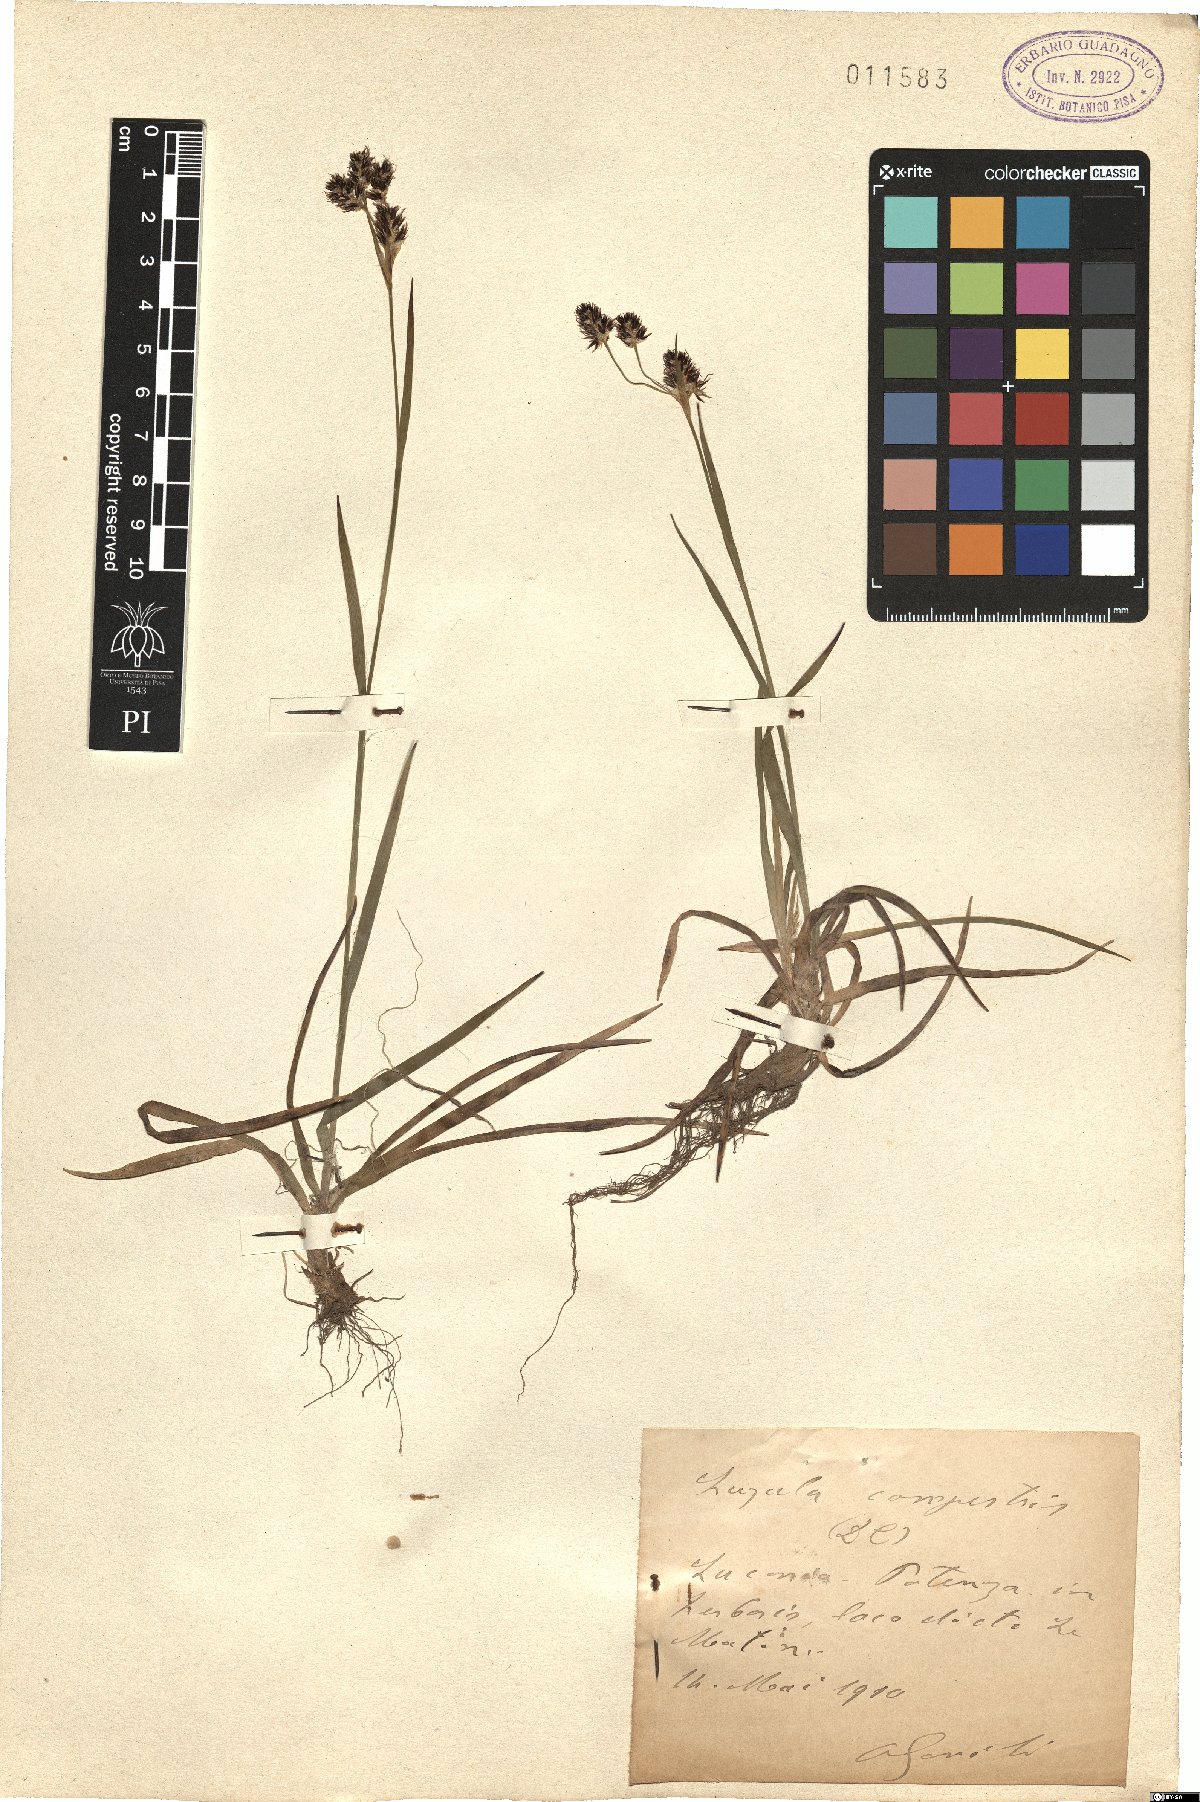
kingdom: Plantae
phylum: Tracheophyta
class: Liliopsida
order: Poales
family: Juncaceae
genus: Luzula
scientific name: Luzula campestris
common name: Field wood-rush
